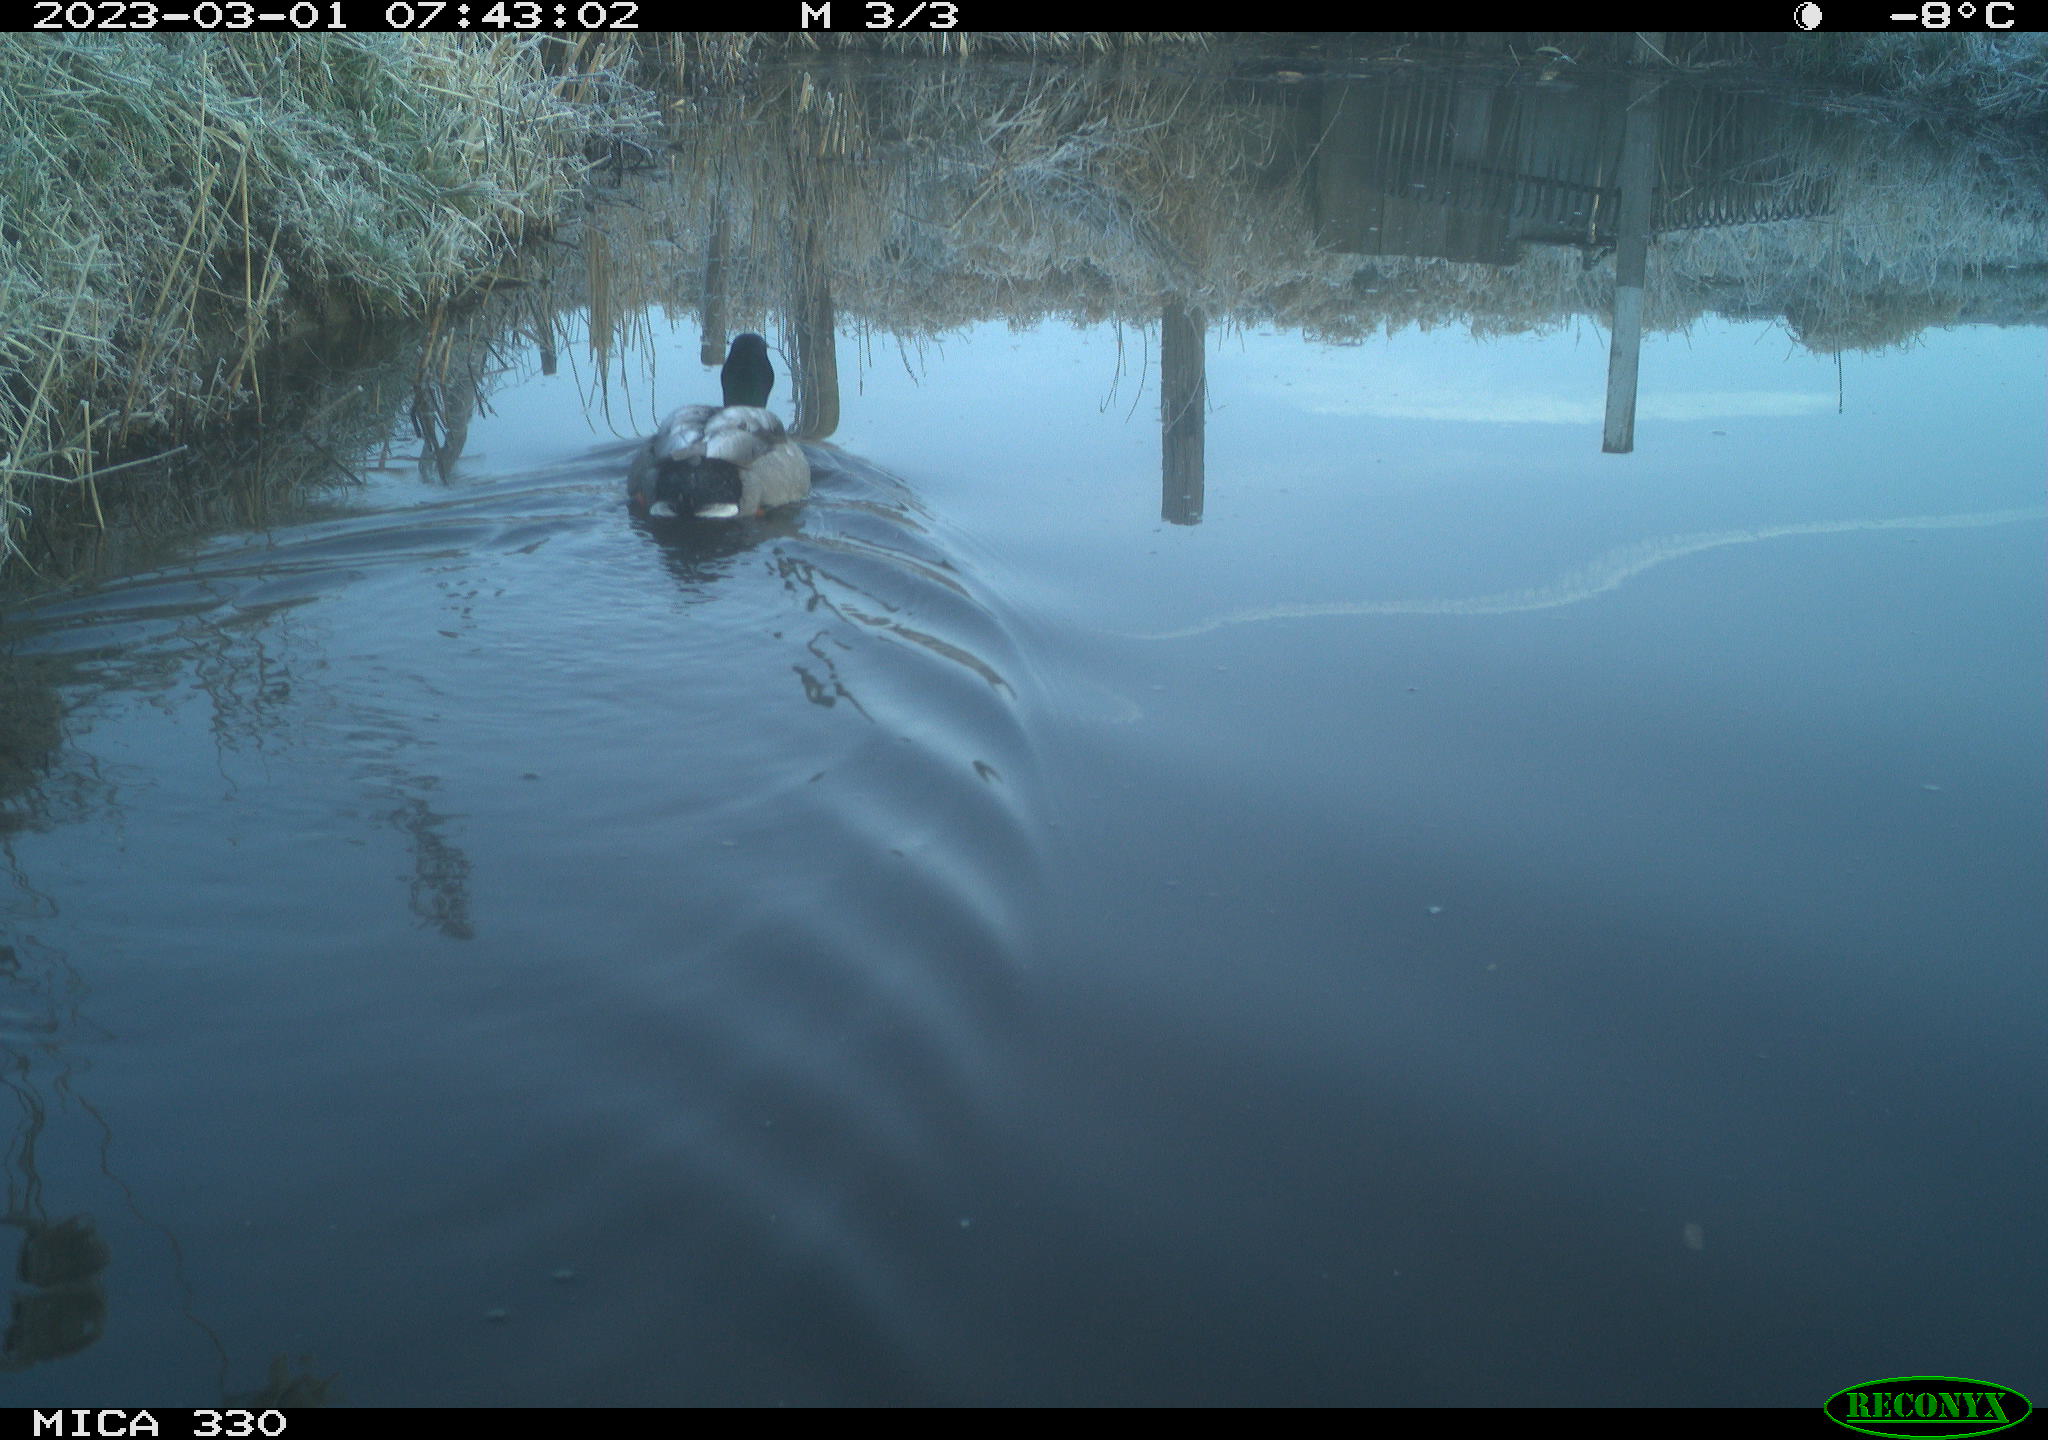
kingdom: Animalia
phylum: Chordata
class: Aves
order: Anseriformes
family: Anatidae
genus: Anas
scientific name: Anas
